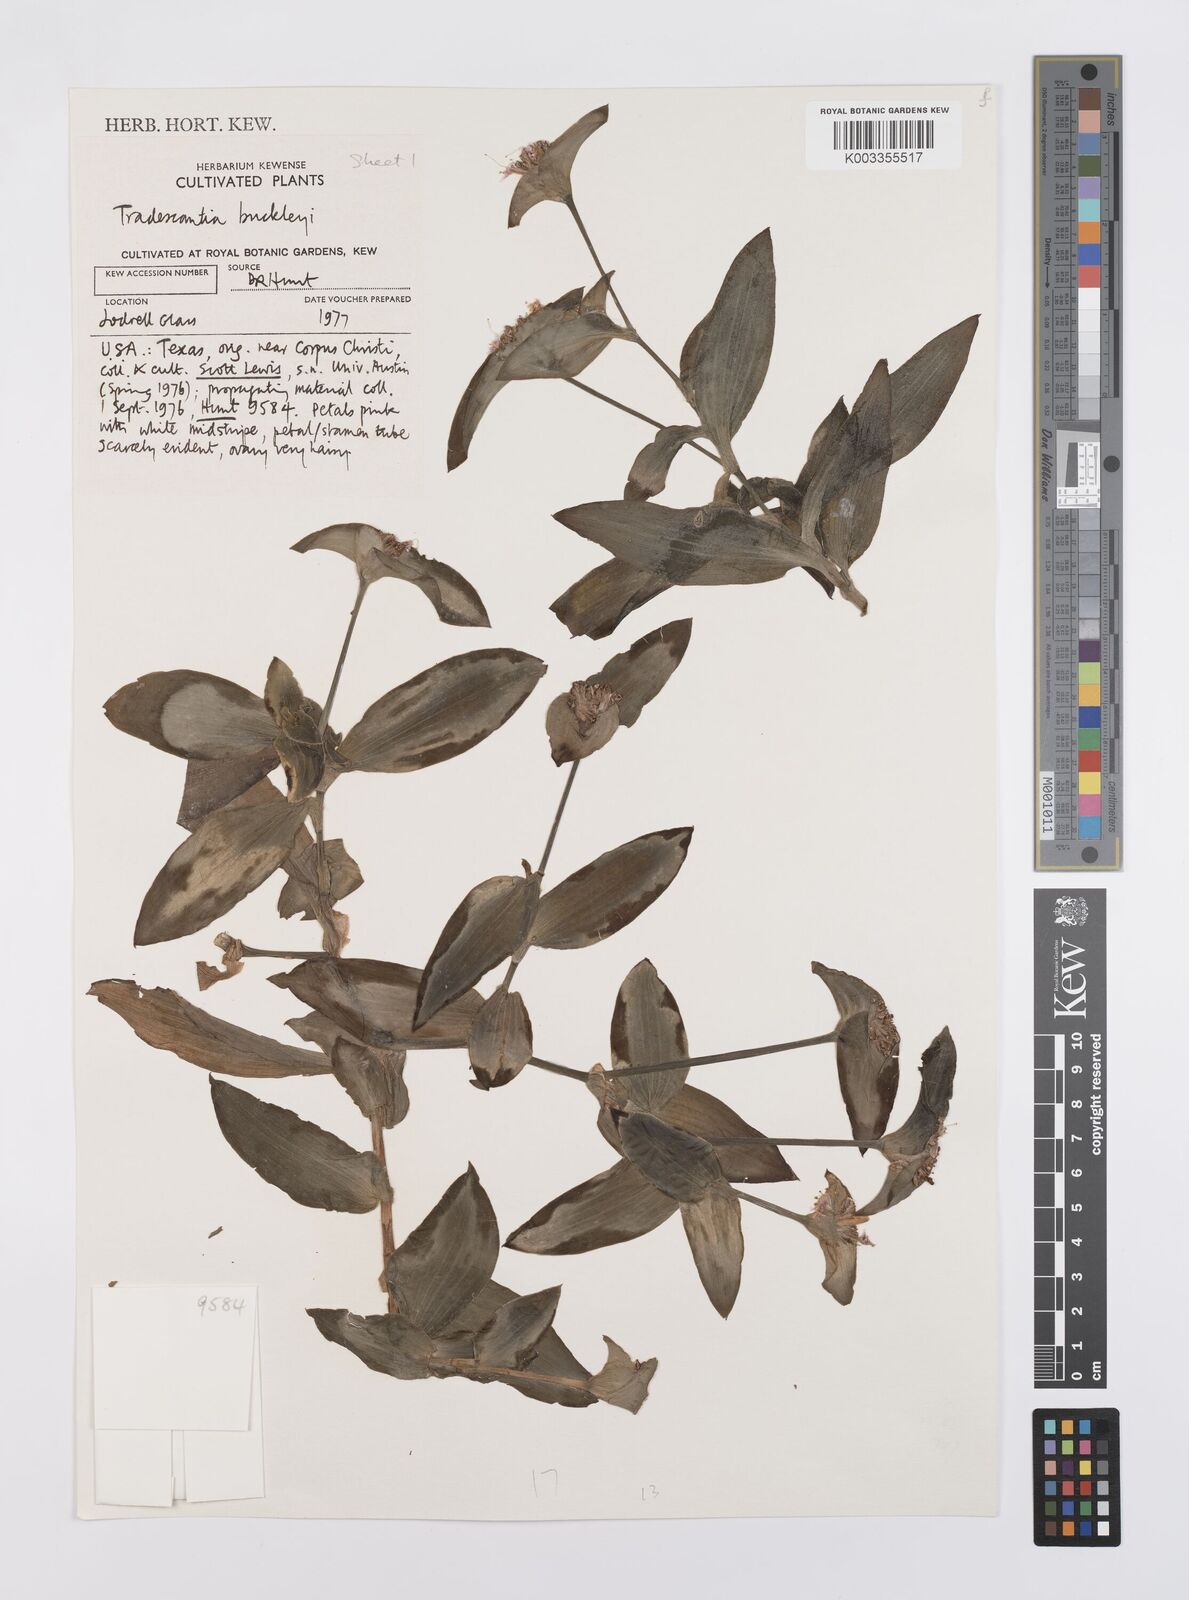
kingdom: Plantae
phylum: Tracheophyta
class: Liliopsida
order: Commelinales
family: Commelinaceae
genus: Tradescantia
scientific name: Tradescantia buckleyi
